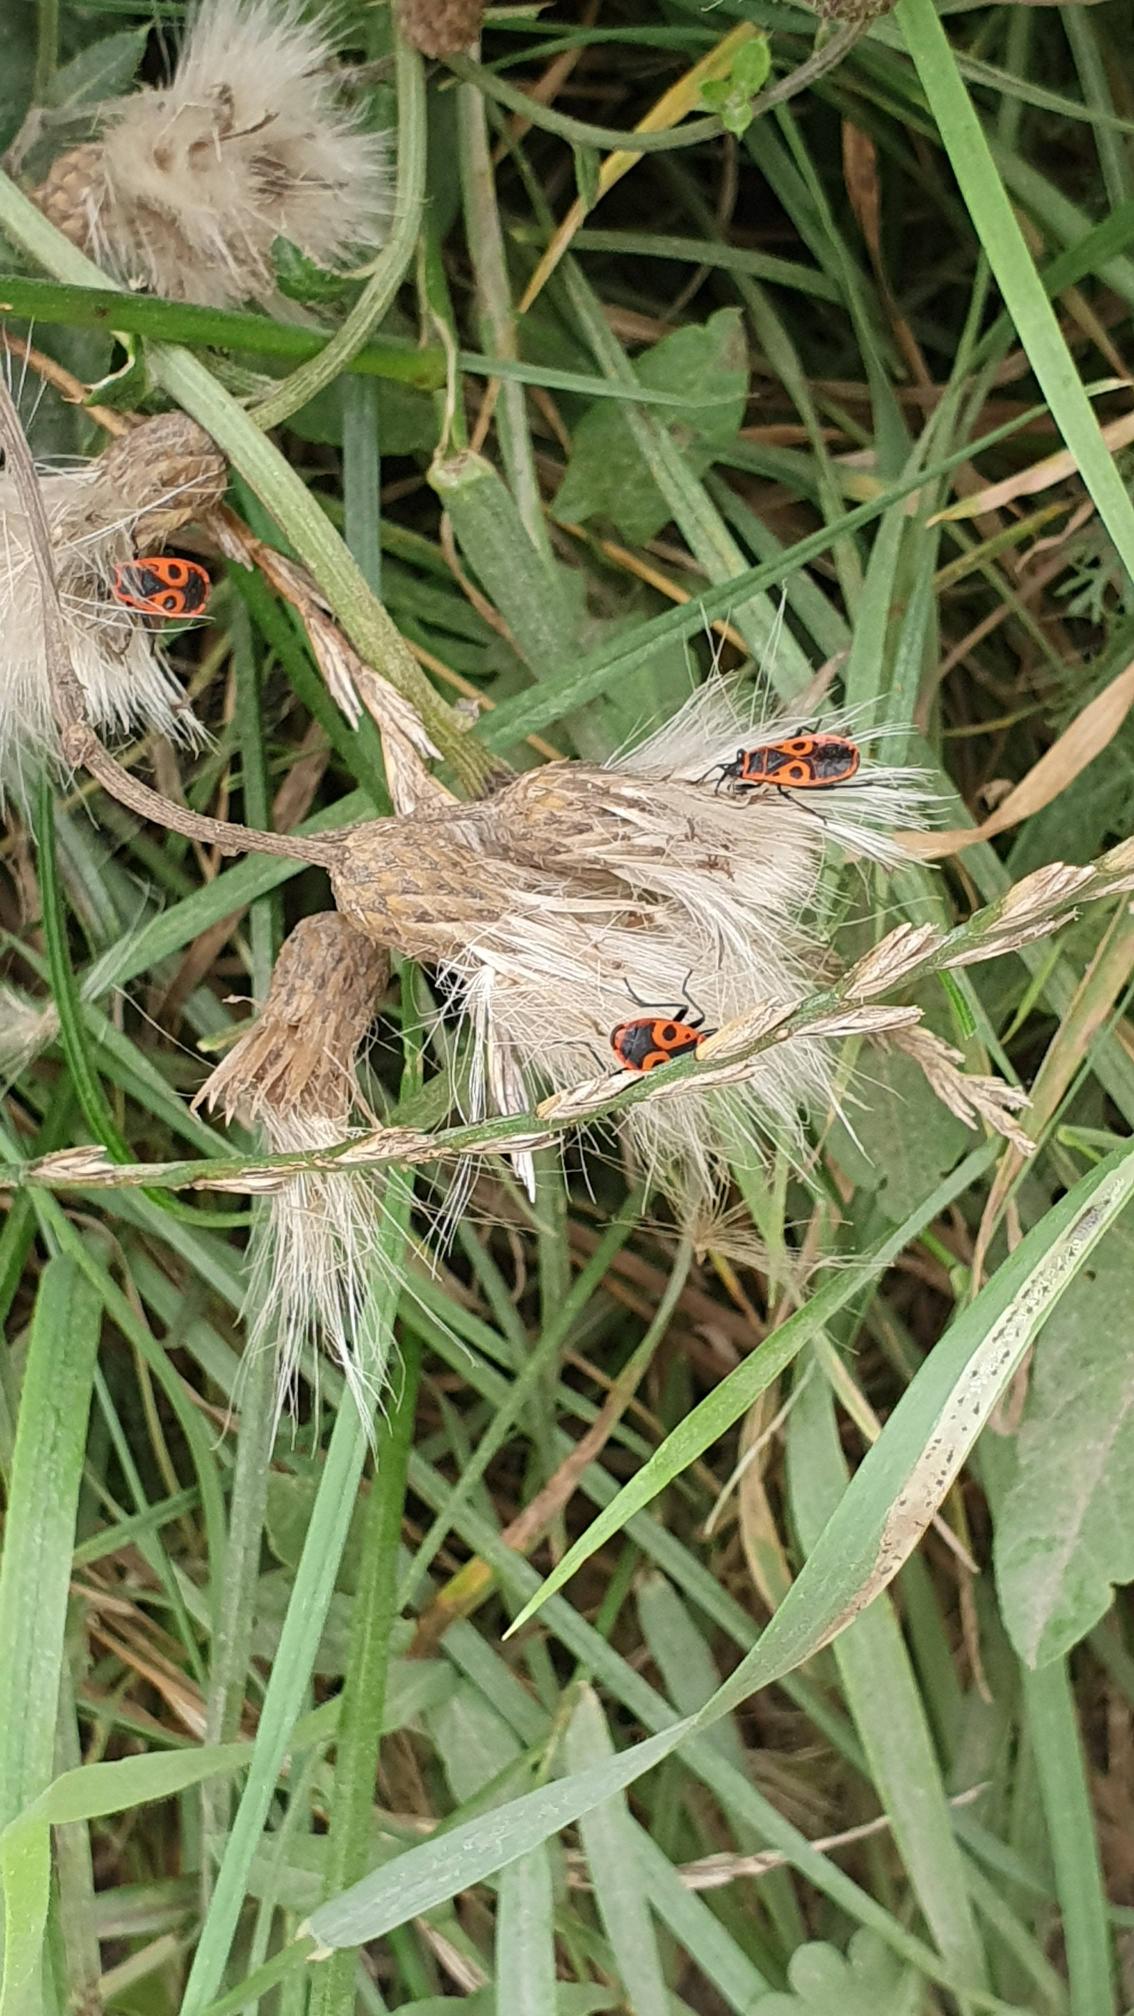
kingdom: Animalia
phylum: Arthropoda
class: Insecta
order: Hemiptera
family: Pyrrhocoridae
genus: Pyrrhocoris
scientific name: Pyrrhocoris apterus
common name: Ildtæge
